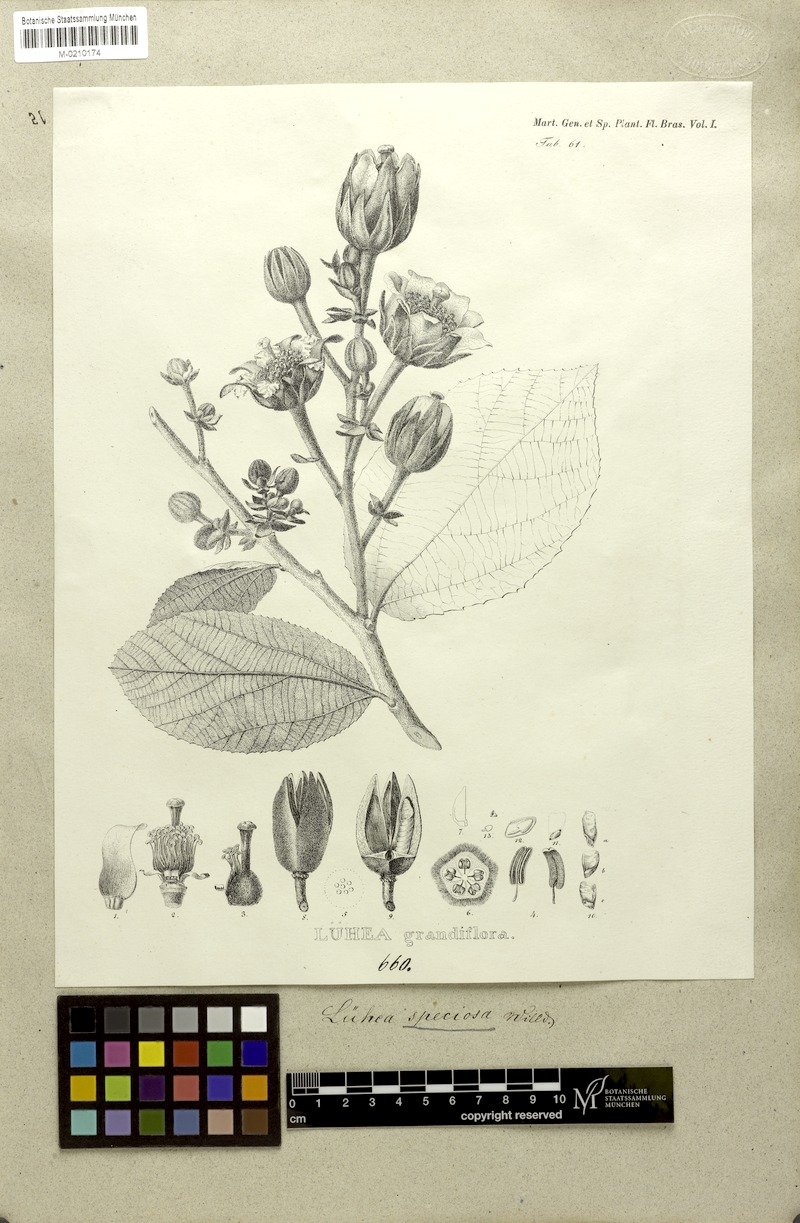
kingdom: Plantae
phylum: Tracheophyta
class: Magnoliopsida
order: Malvales
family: Malvaceae
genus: Luehea
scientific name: Luehea grandiflora
